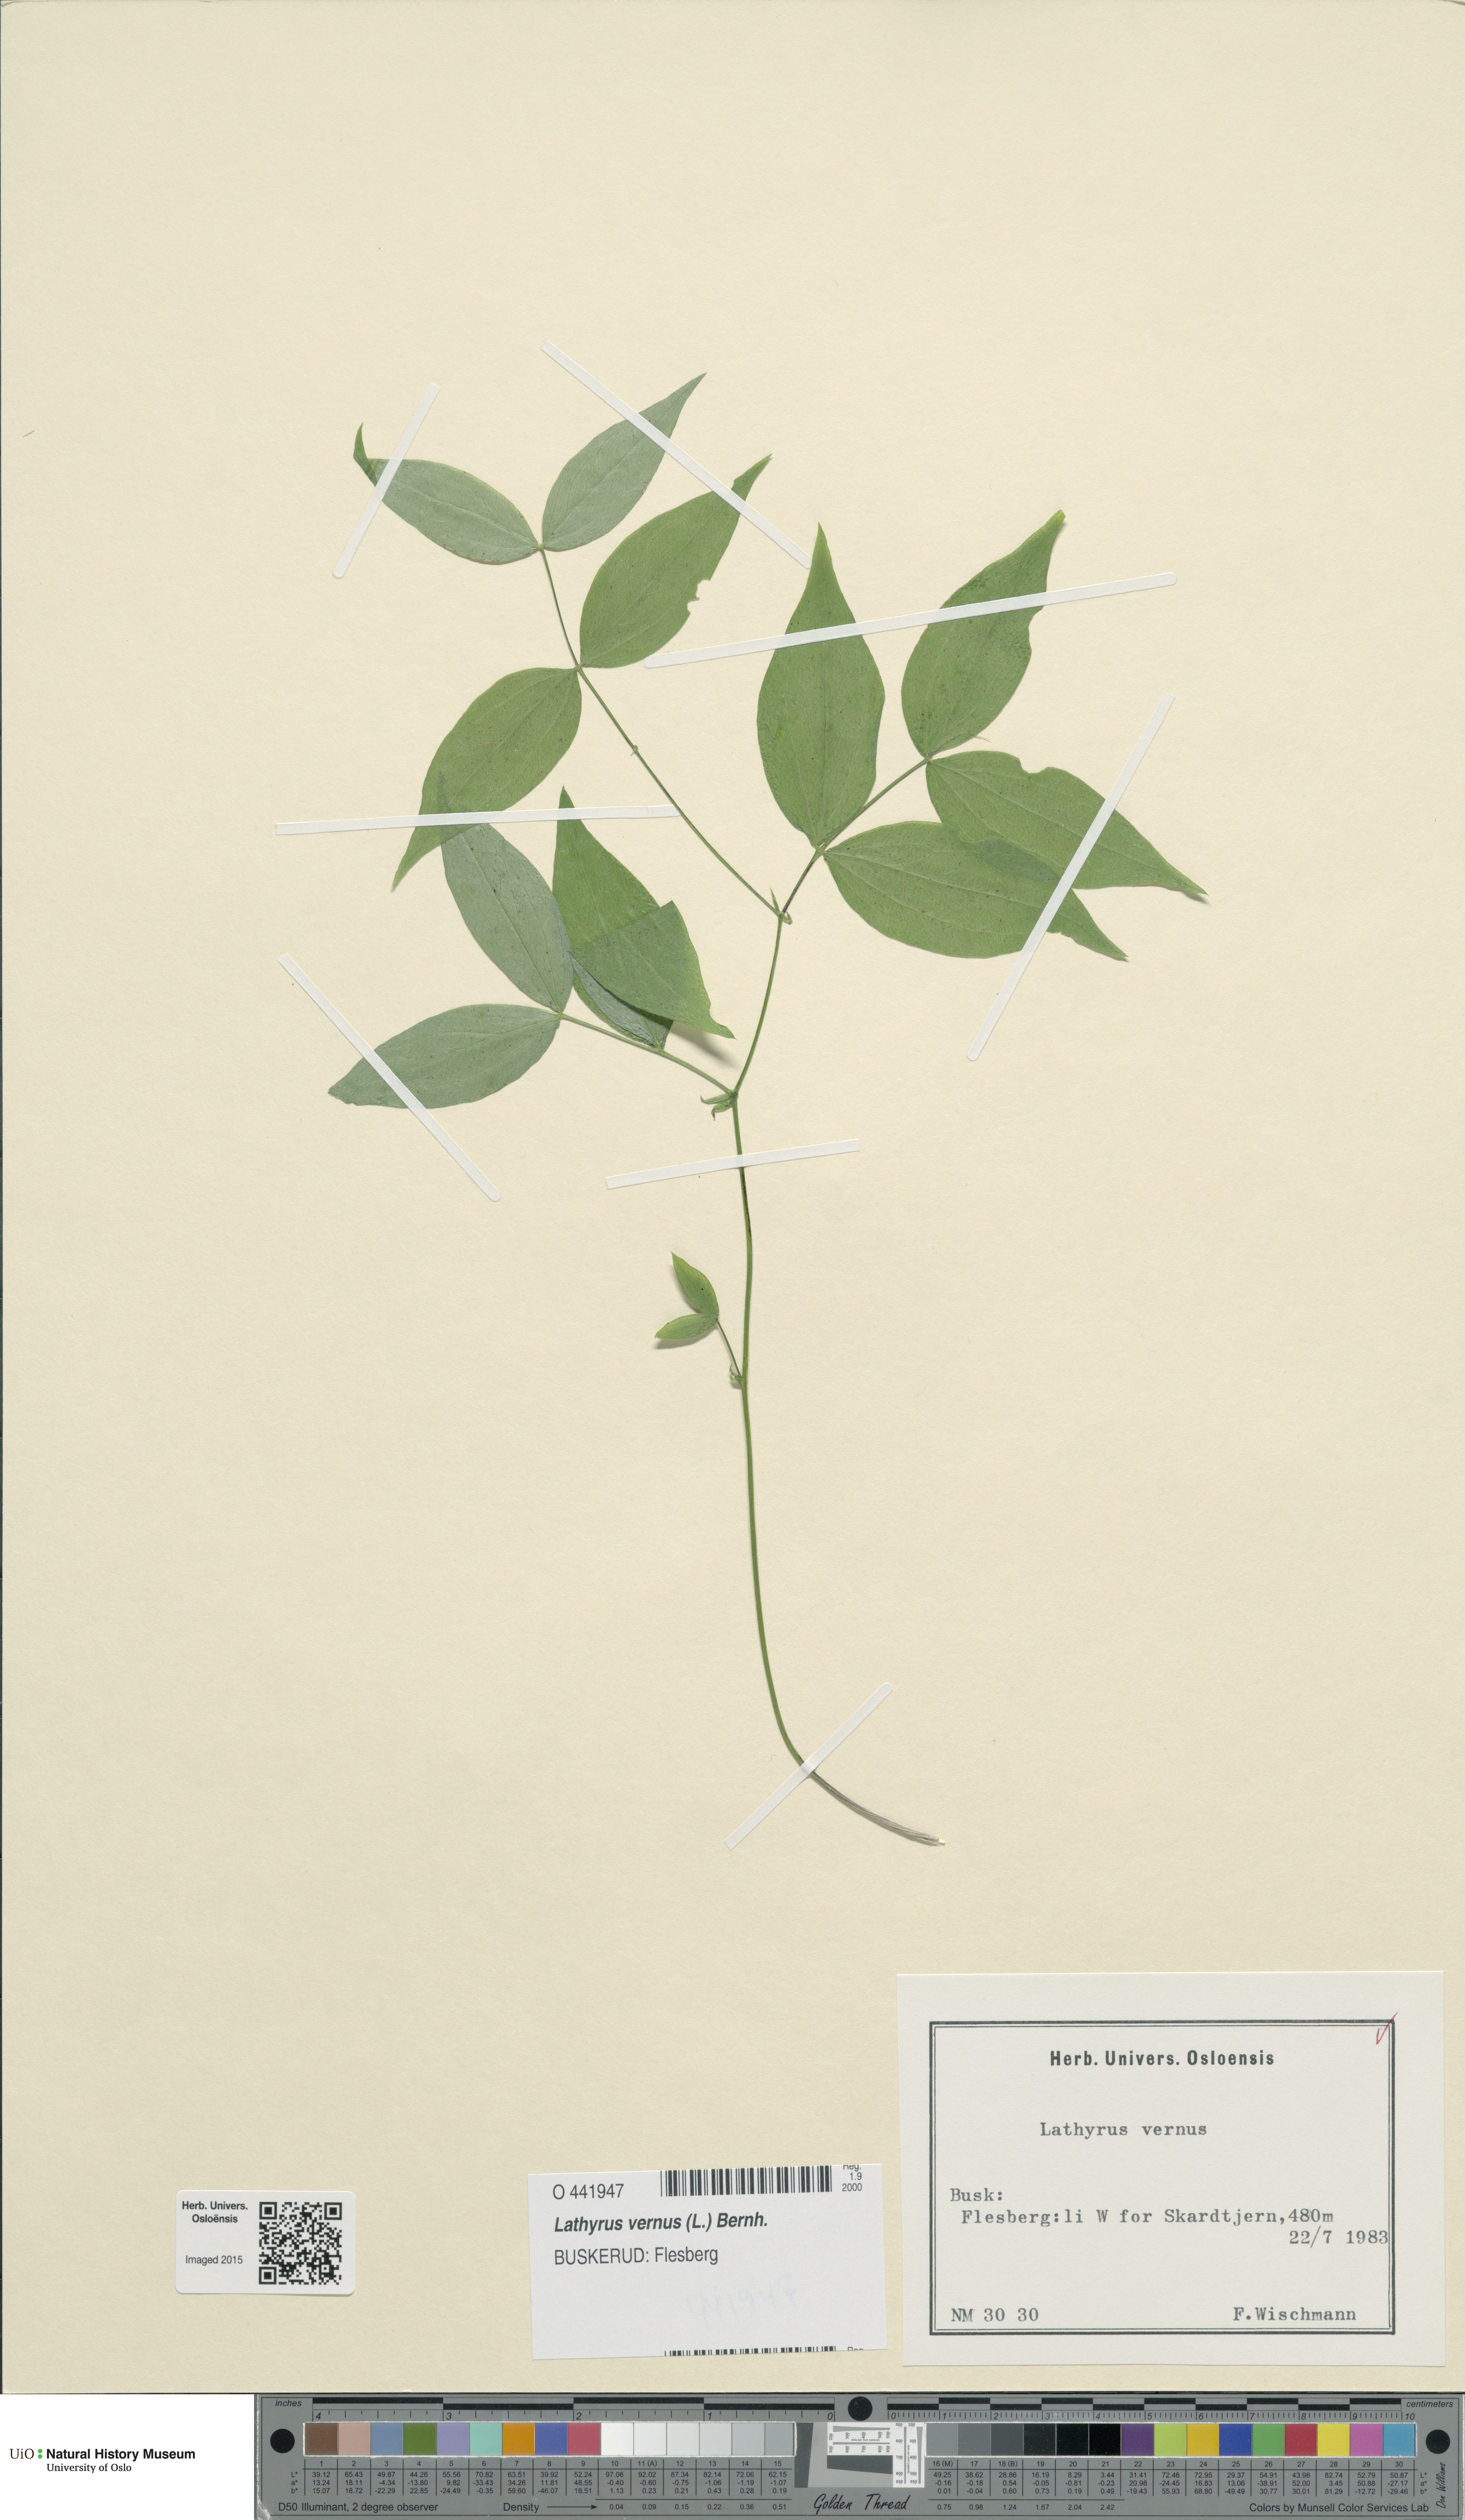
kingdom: Plantae
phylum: Tracheophyta
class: Magnoliopsida
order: Fabales
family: Fabaceae
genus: Lathyrus
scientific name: Lathyrus vernus
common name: Spring pea
